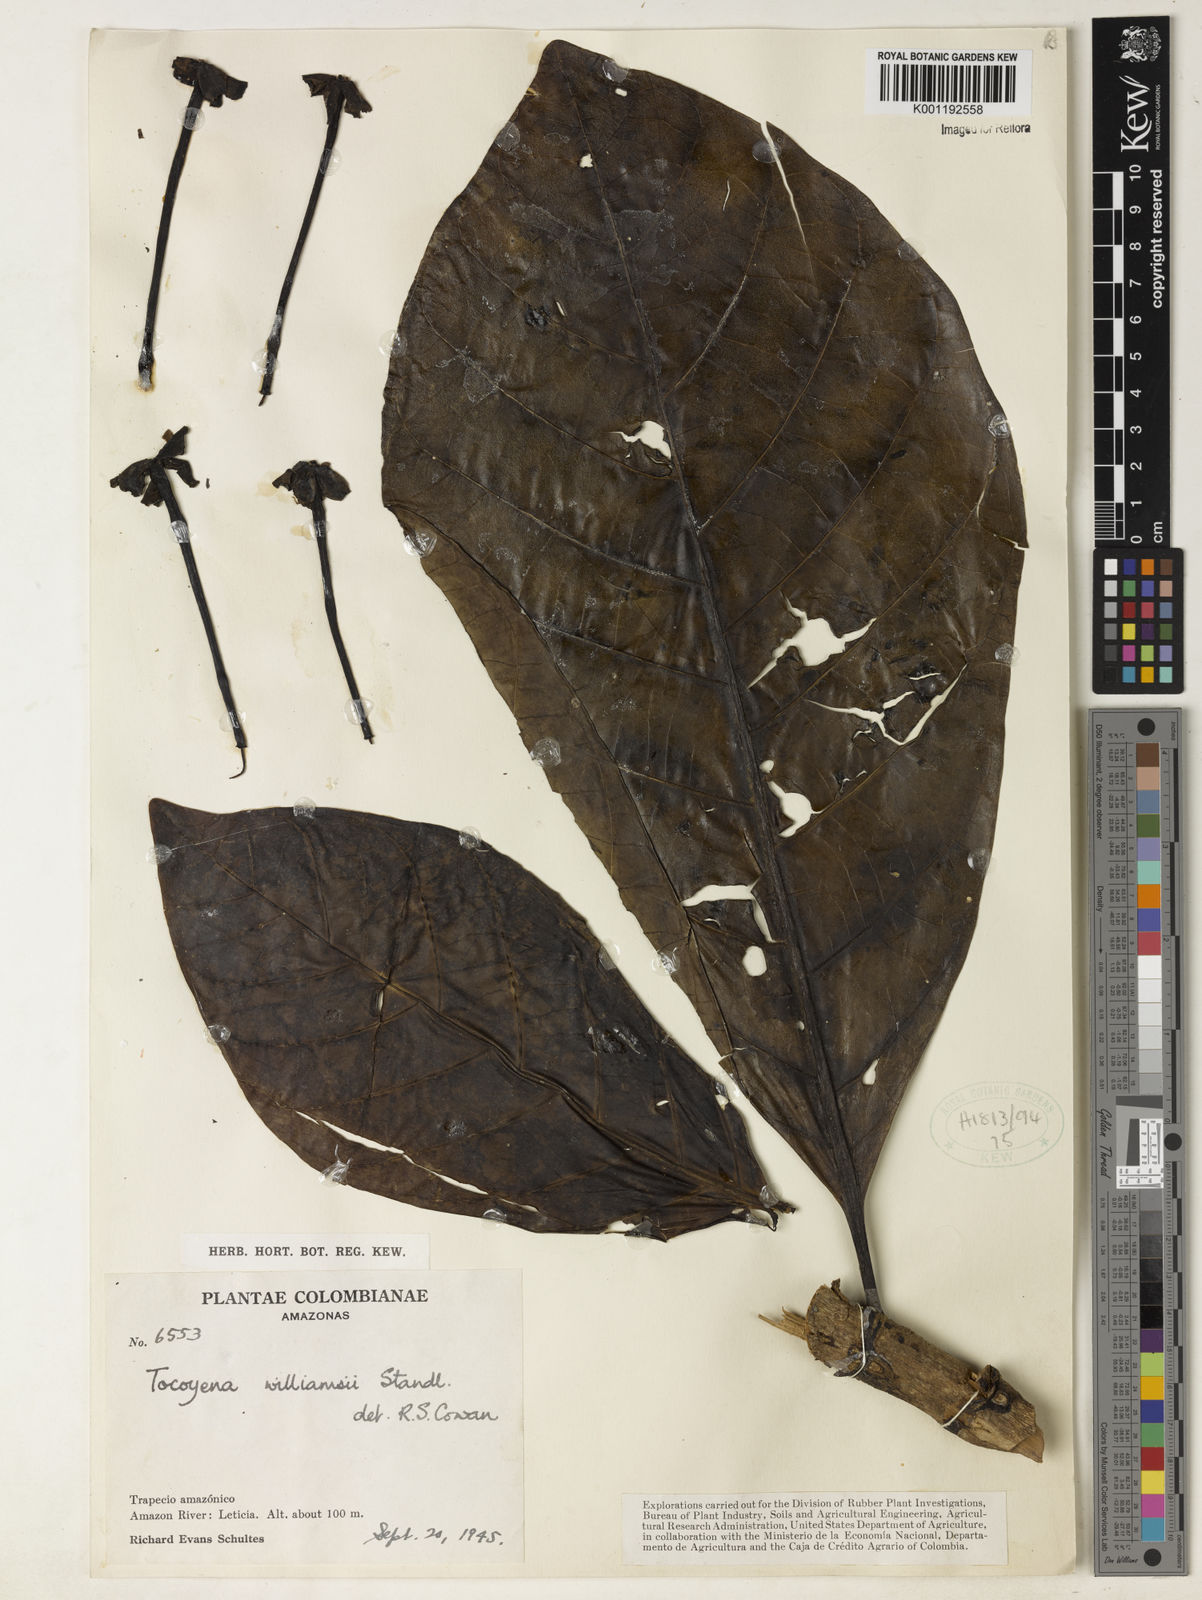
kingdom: Plantae
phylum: Tracheophyta
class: Magnoliopsida
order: Gentianales
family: Rubiaceae
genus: Tocoyena
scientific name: Tocoyena pittieri
